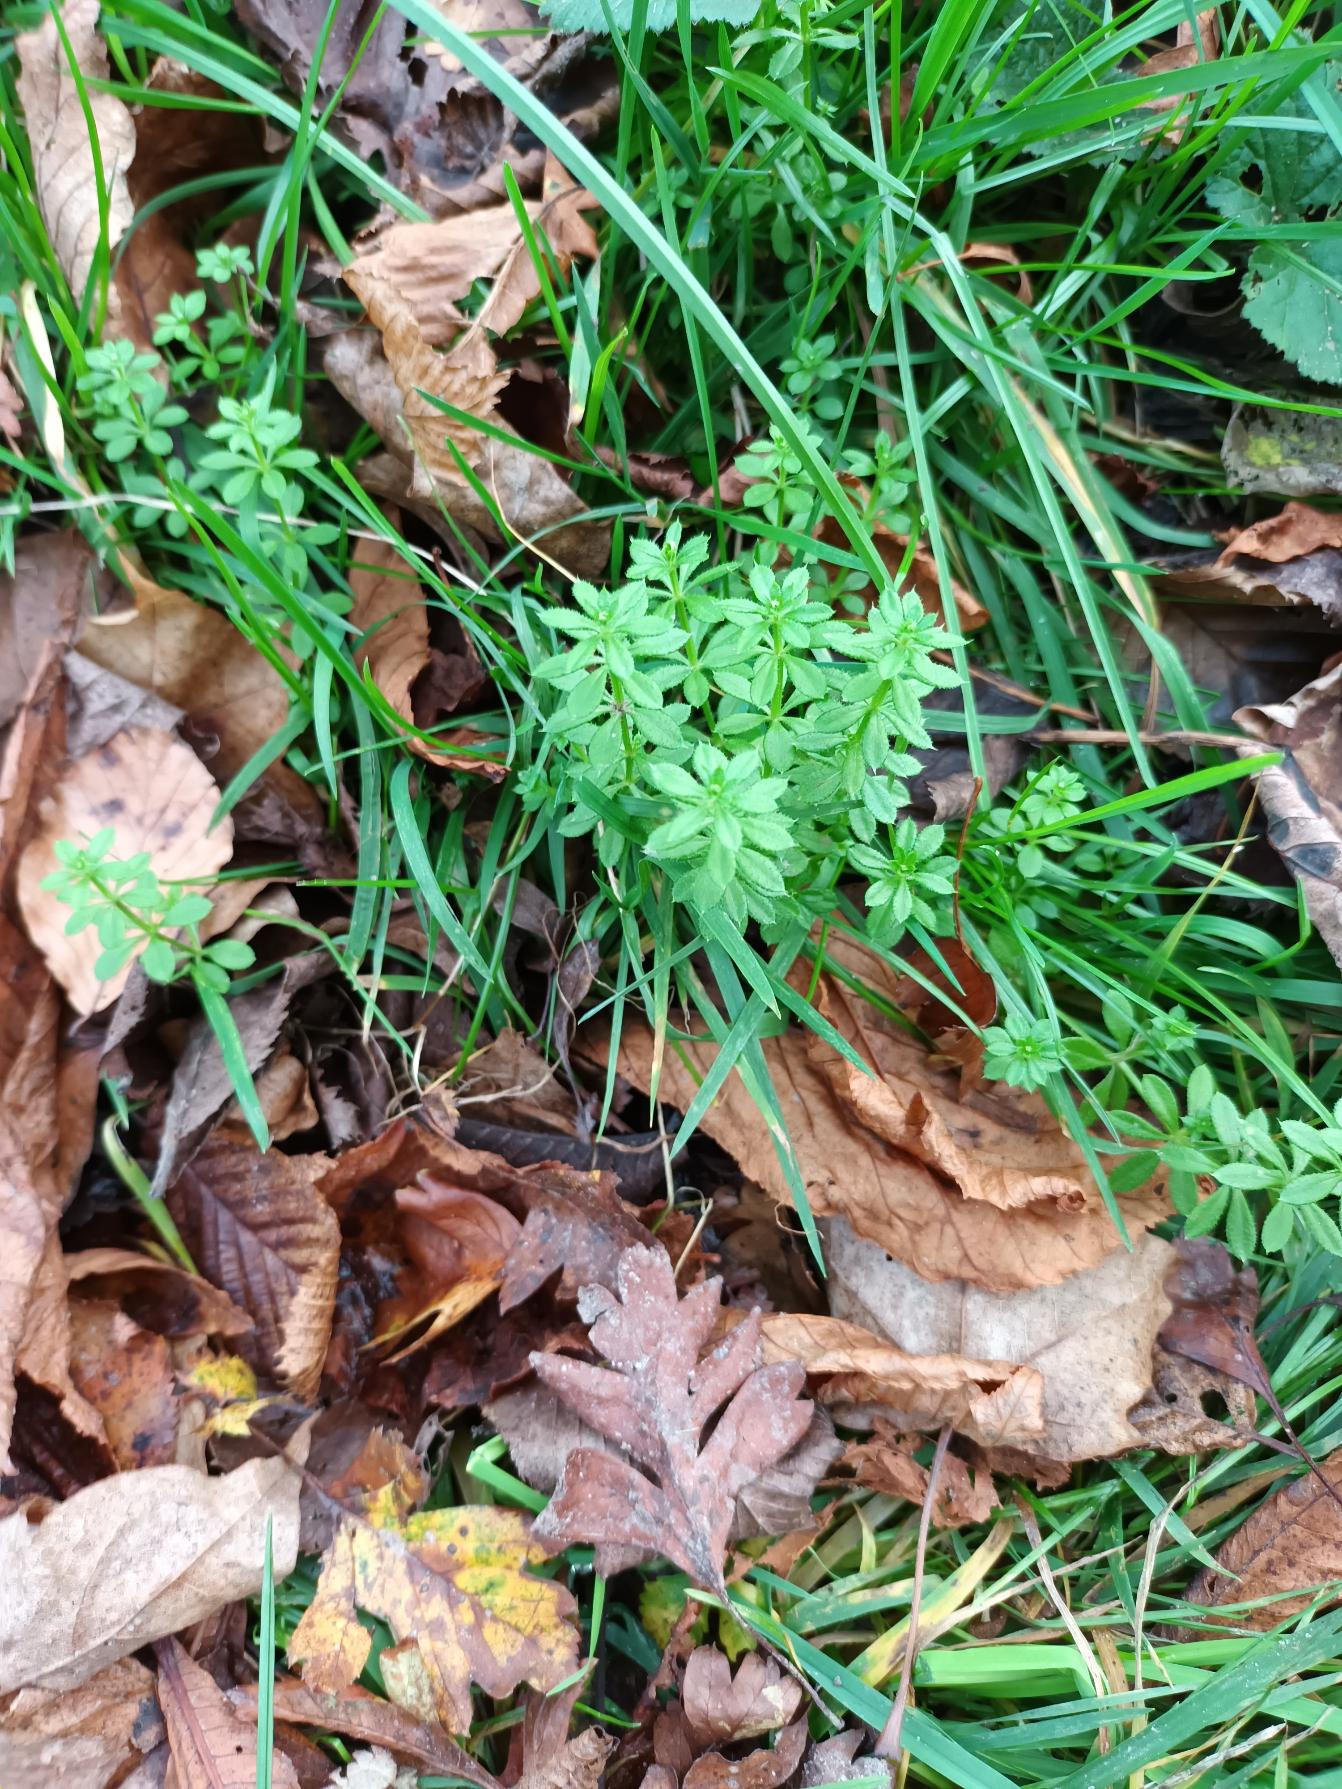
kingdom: Plantae
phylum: Tracheophyta
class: Magnoliopsida
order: Gentianales
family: Rubiaceae
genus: Galium
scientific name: Galium aparine
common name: Burre-snerre
